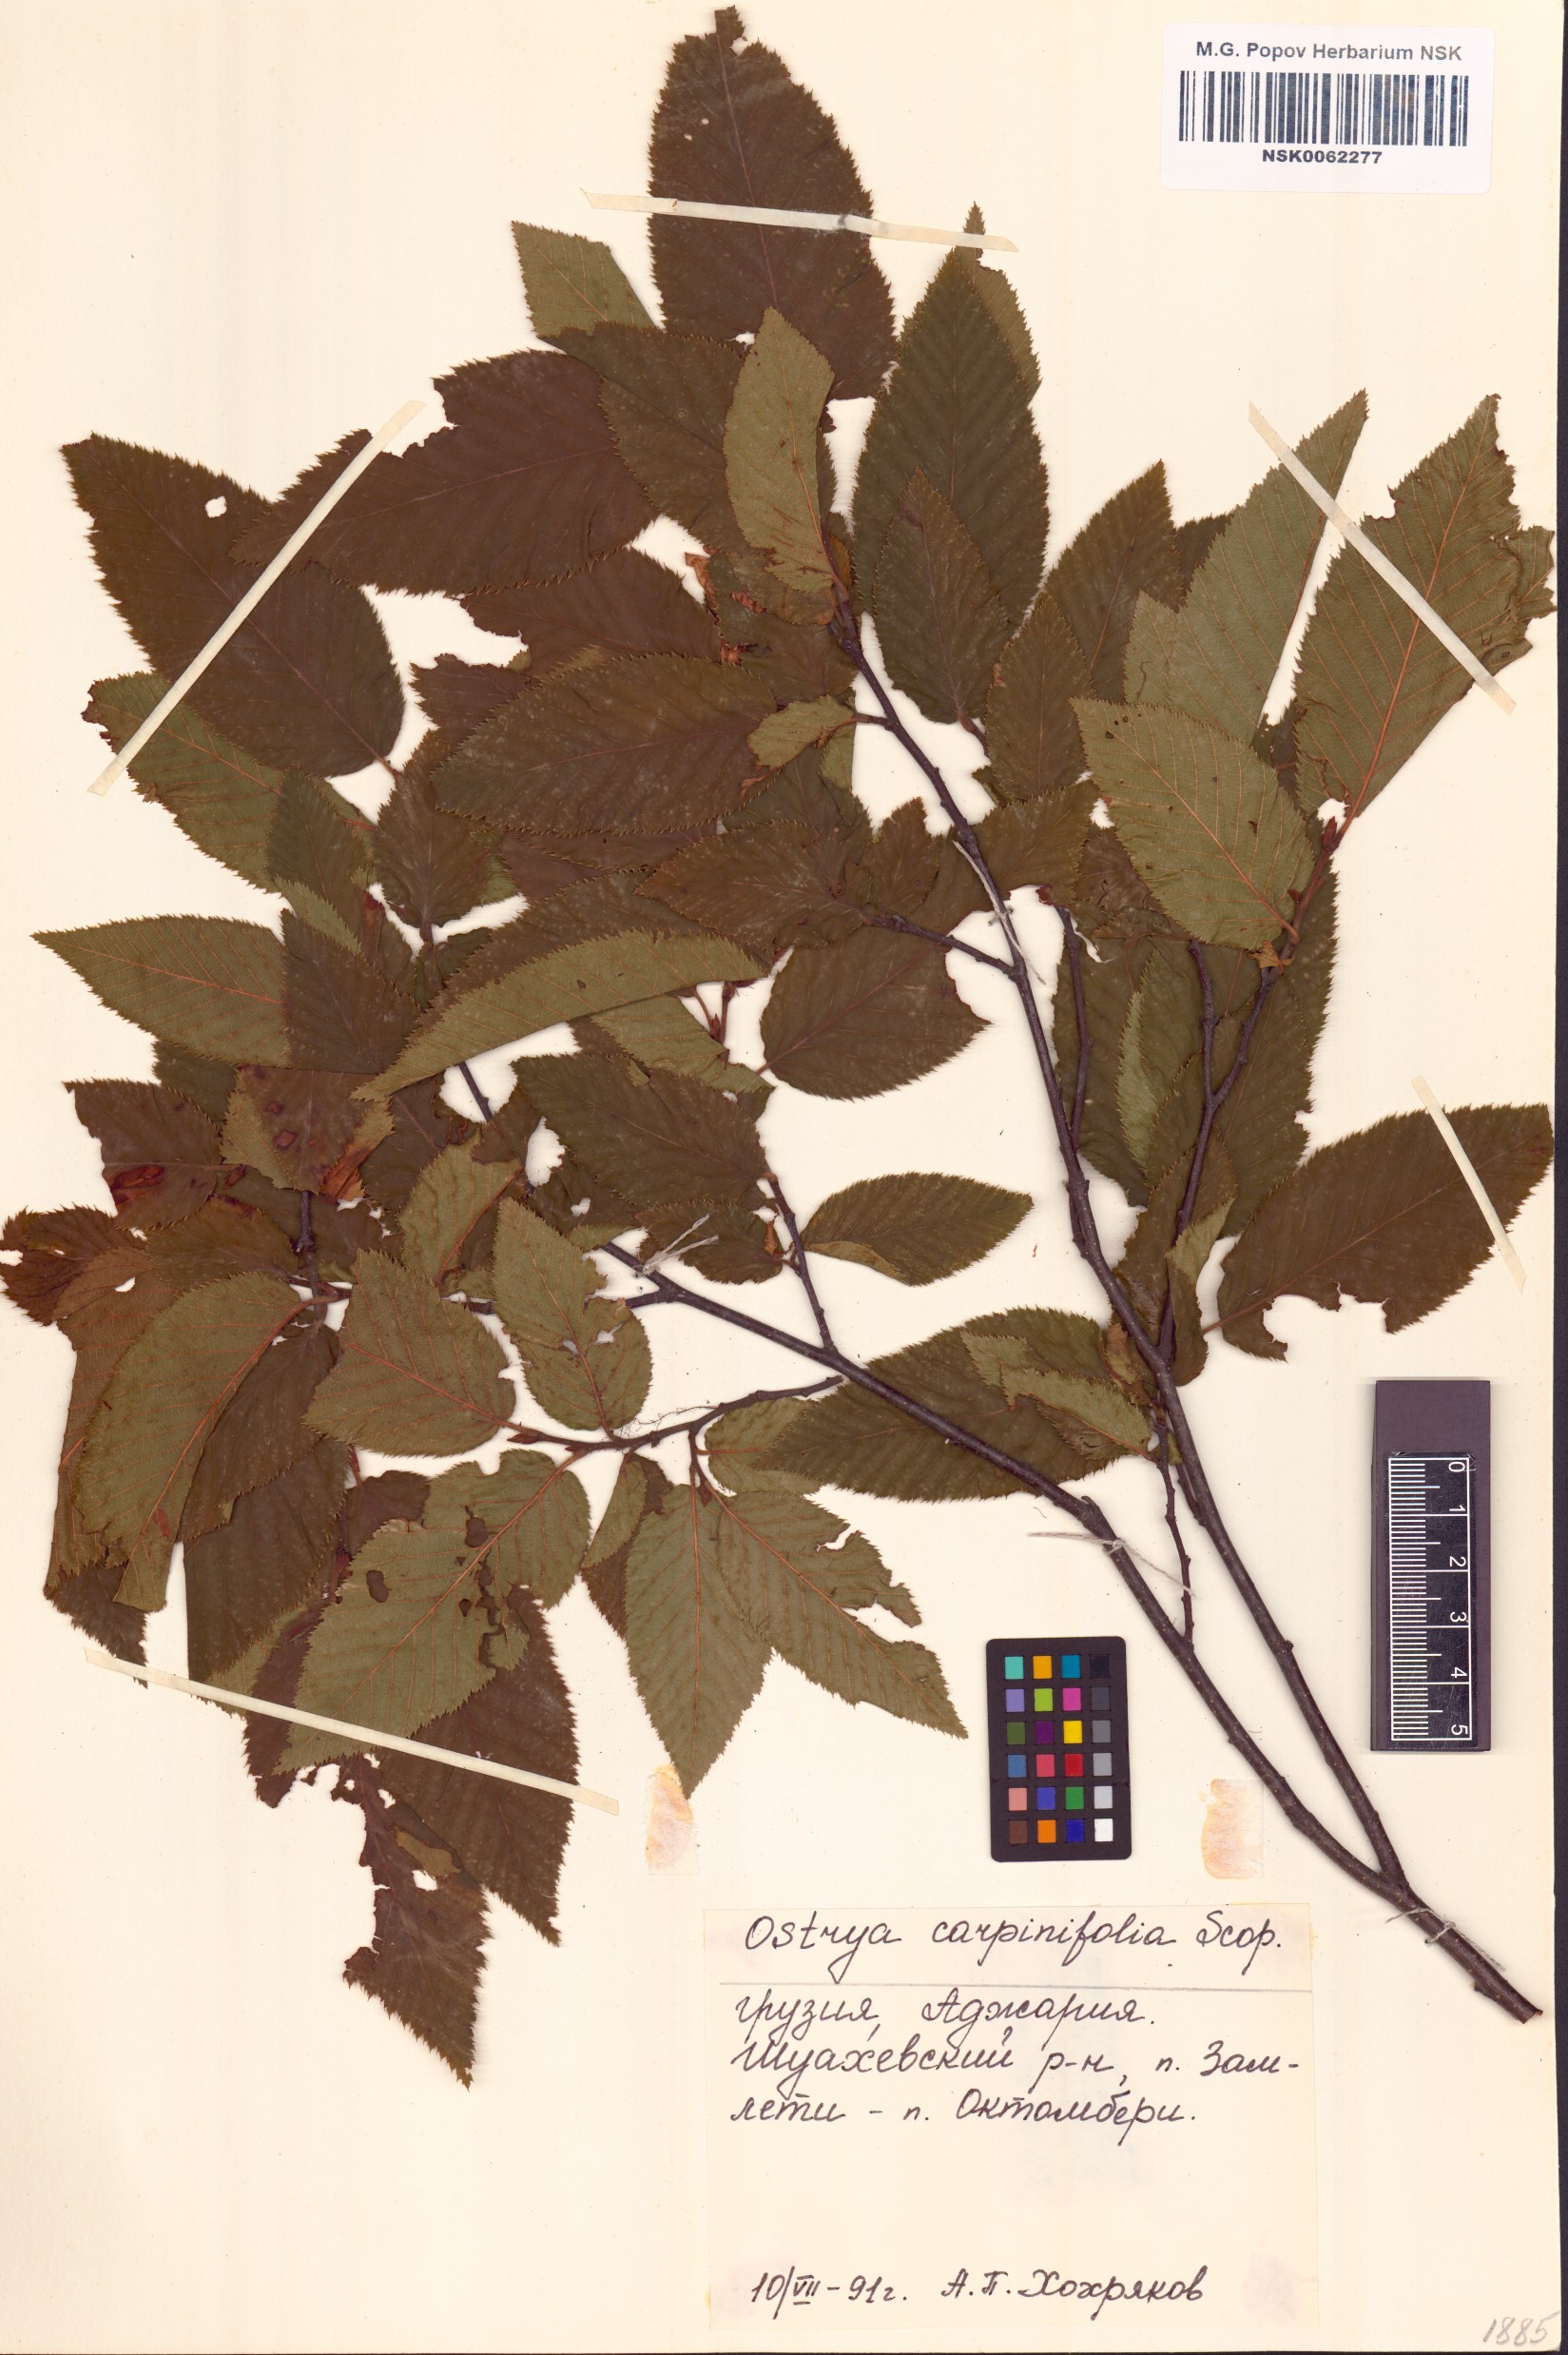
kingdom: Plantae
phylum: Tracheophyta
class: Magnoliopsida
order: Fagales
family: Betulaceae
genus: Ostrya
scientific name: Ostrya carpinifolia
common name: European hop-hornbeam
